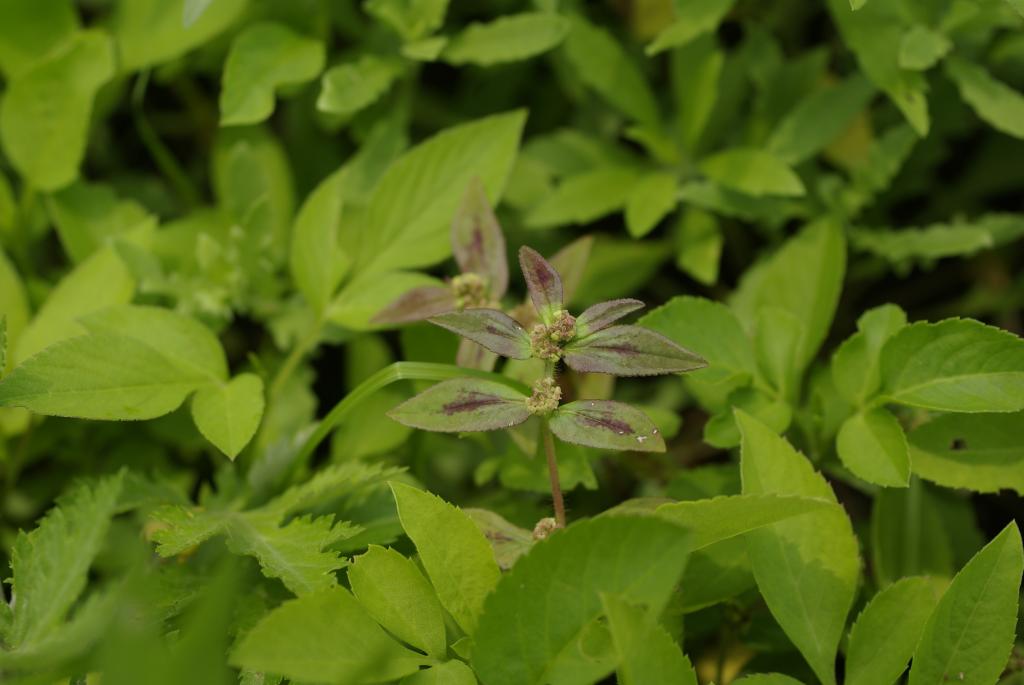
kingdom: Plantae
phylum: Tracheophyta
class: Magnoliopsida
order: Malpighiales
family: Euphorbiaceae
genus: Euphorbia
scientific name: Euphorbia hirta
